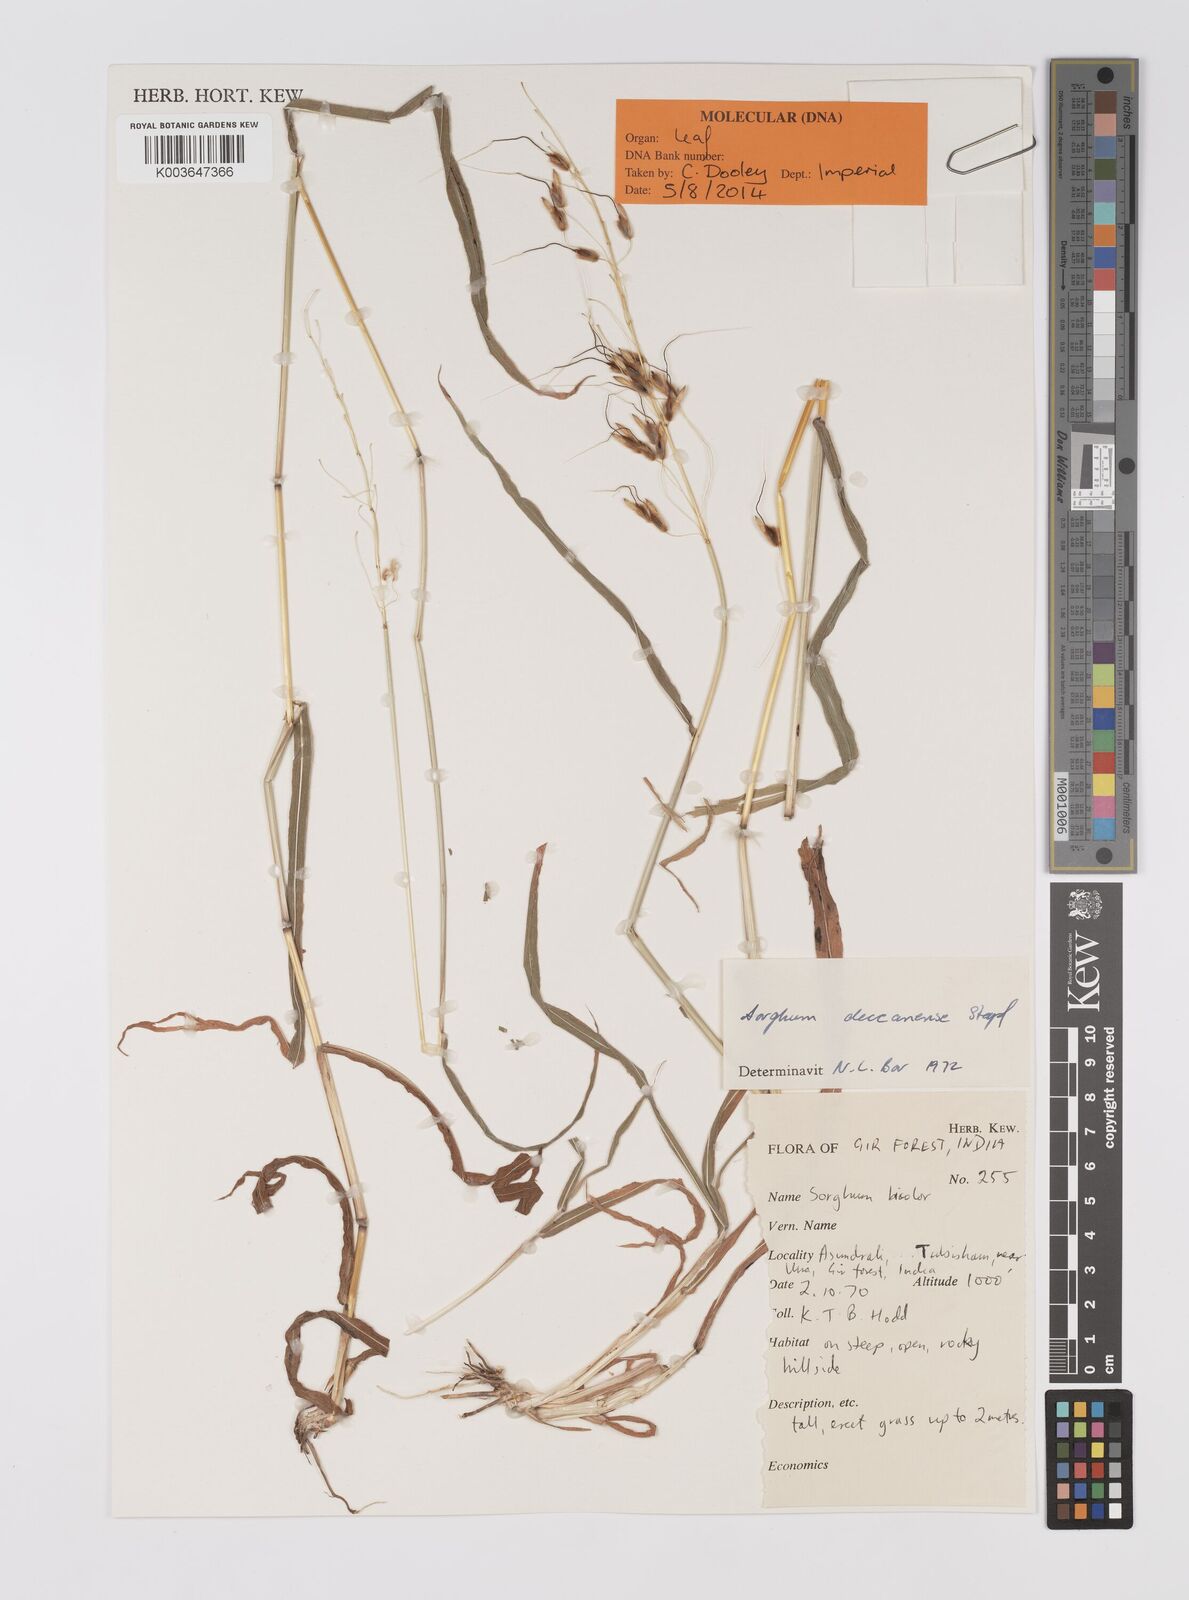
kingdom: Plantae
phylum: Tracheophyta
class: Liliopsida
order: Poales
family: Poaceae
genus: Sarga
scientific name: Sarga purpureosericea
